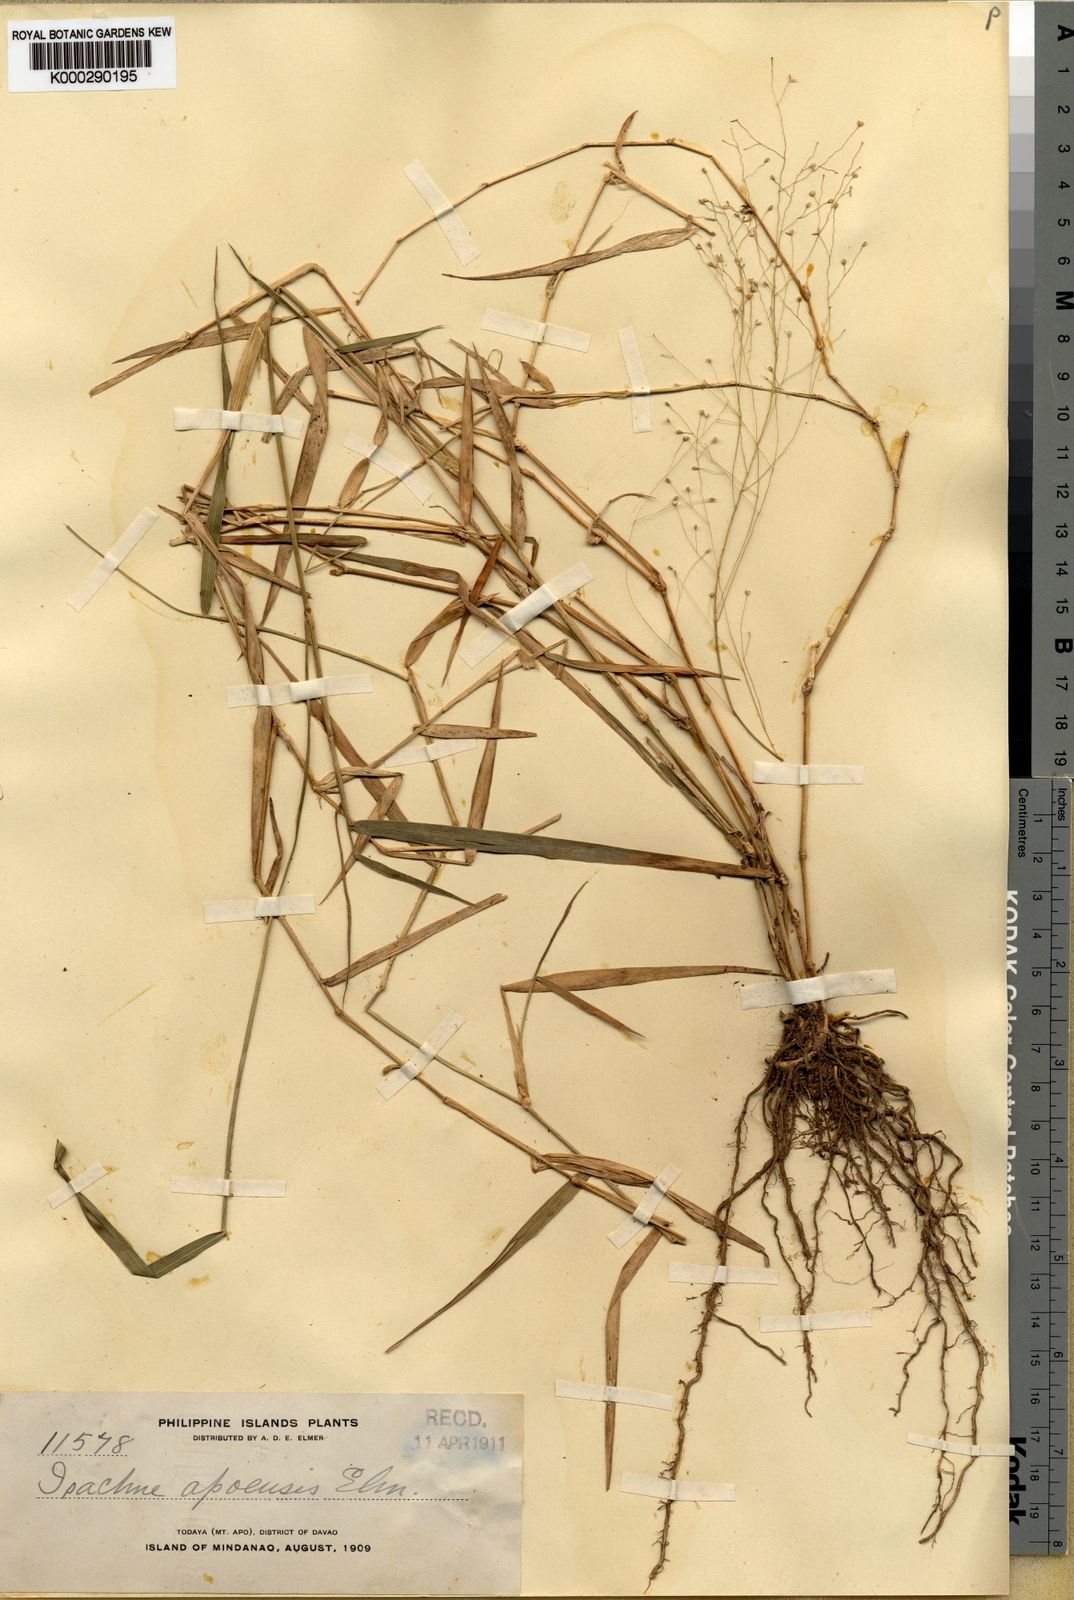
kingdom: Plantae
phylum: Tracheophyta
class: Liliopsida
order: Poales
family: Poaceae
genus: Isachne
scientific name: Isachne albens
